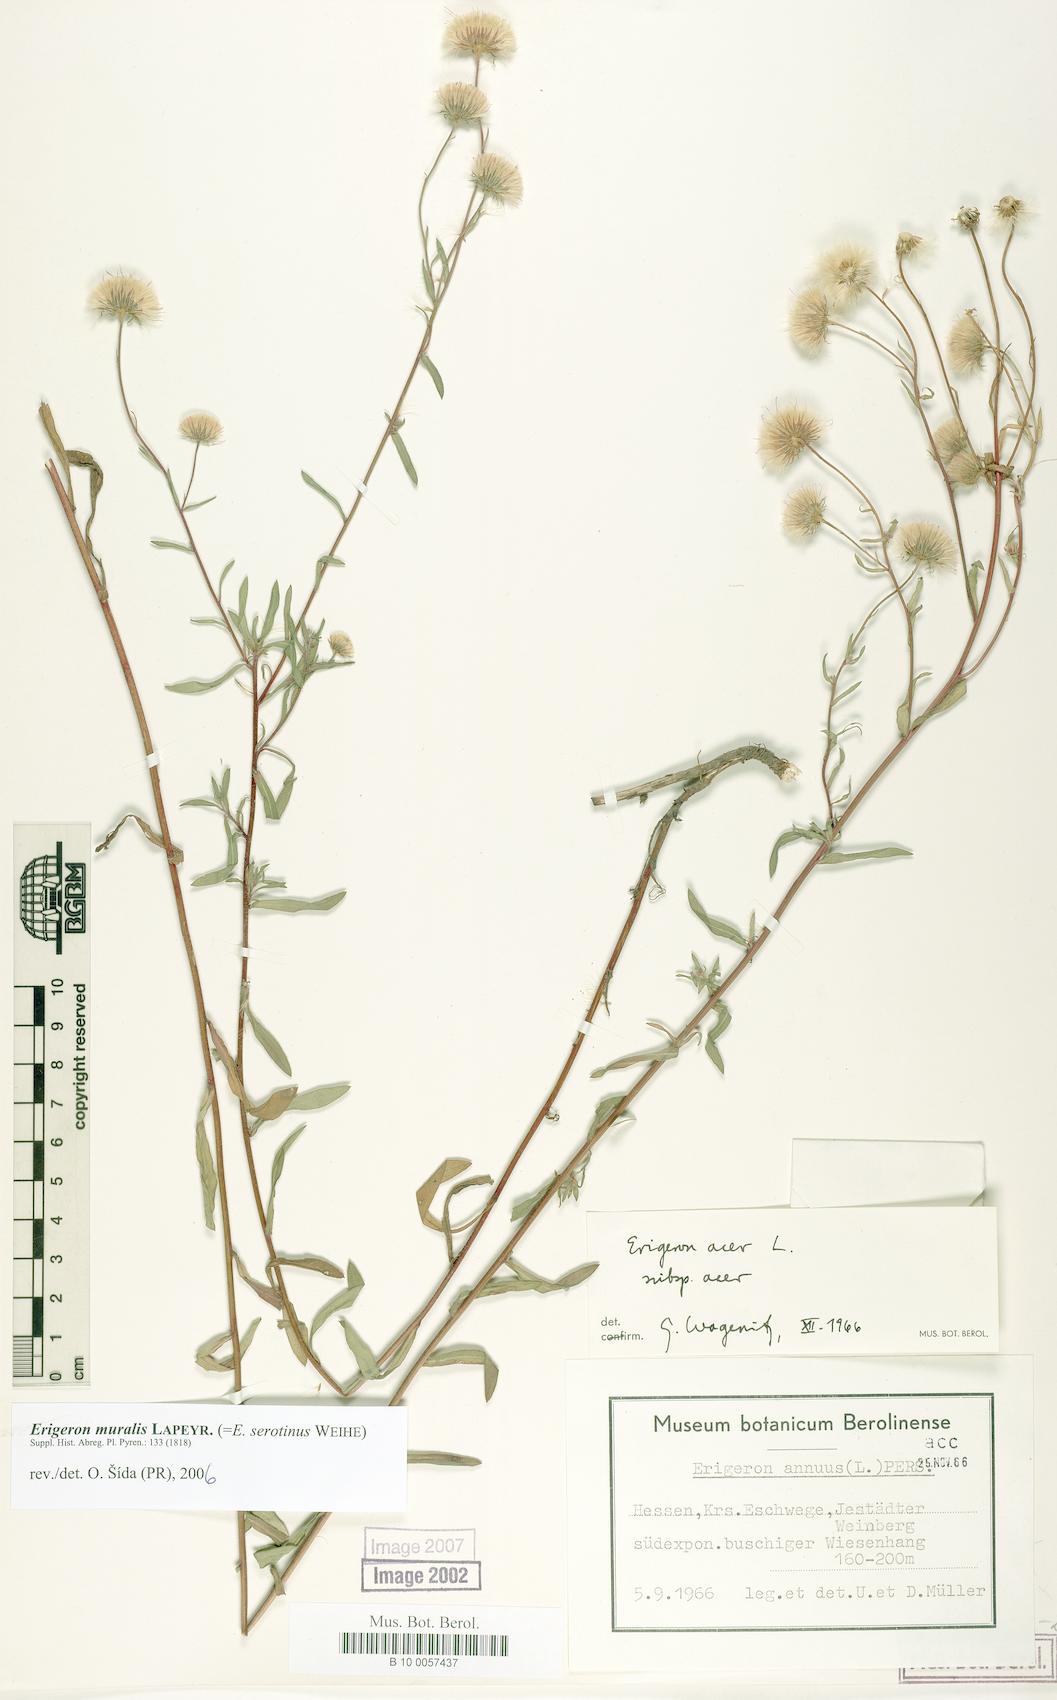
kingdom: Plantae
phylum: Tracheophyta
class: Magnoliopsida
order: Asterales
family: Asteraceae
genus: Erigeron
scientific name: Erigeron muralis
